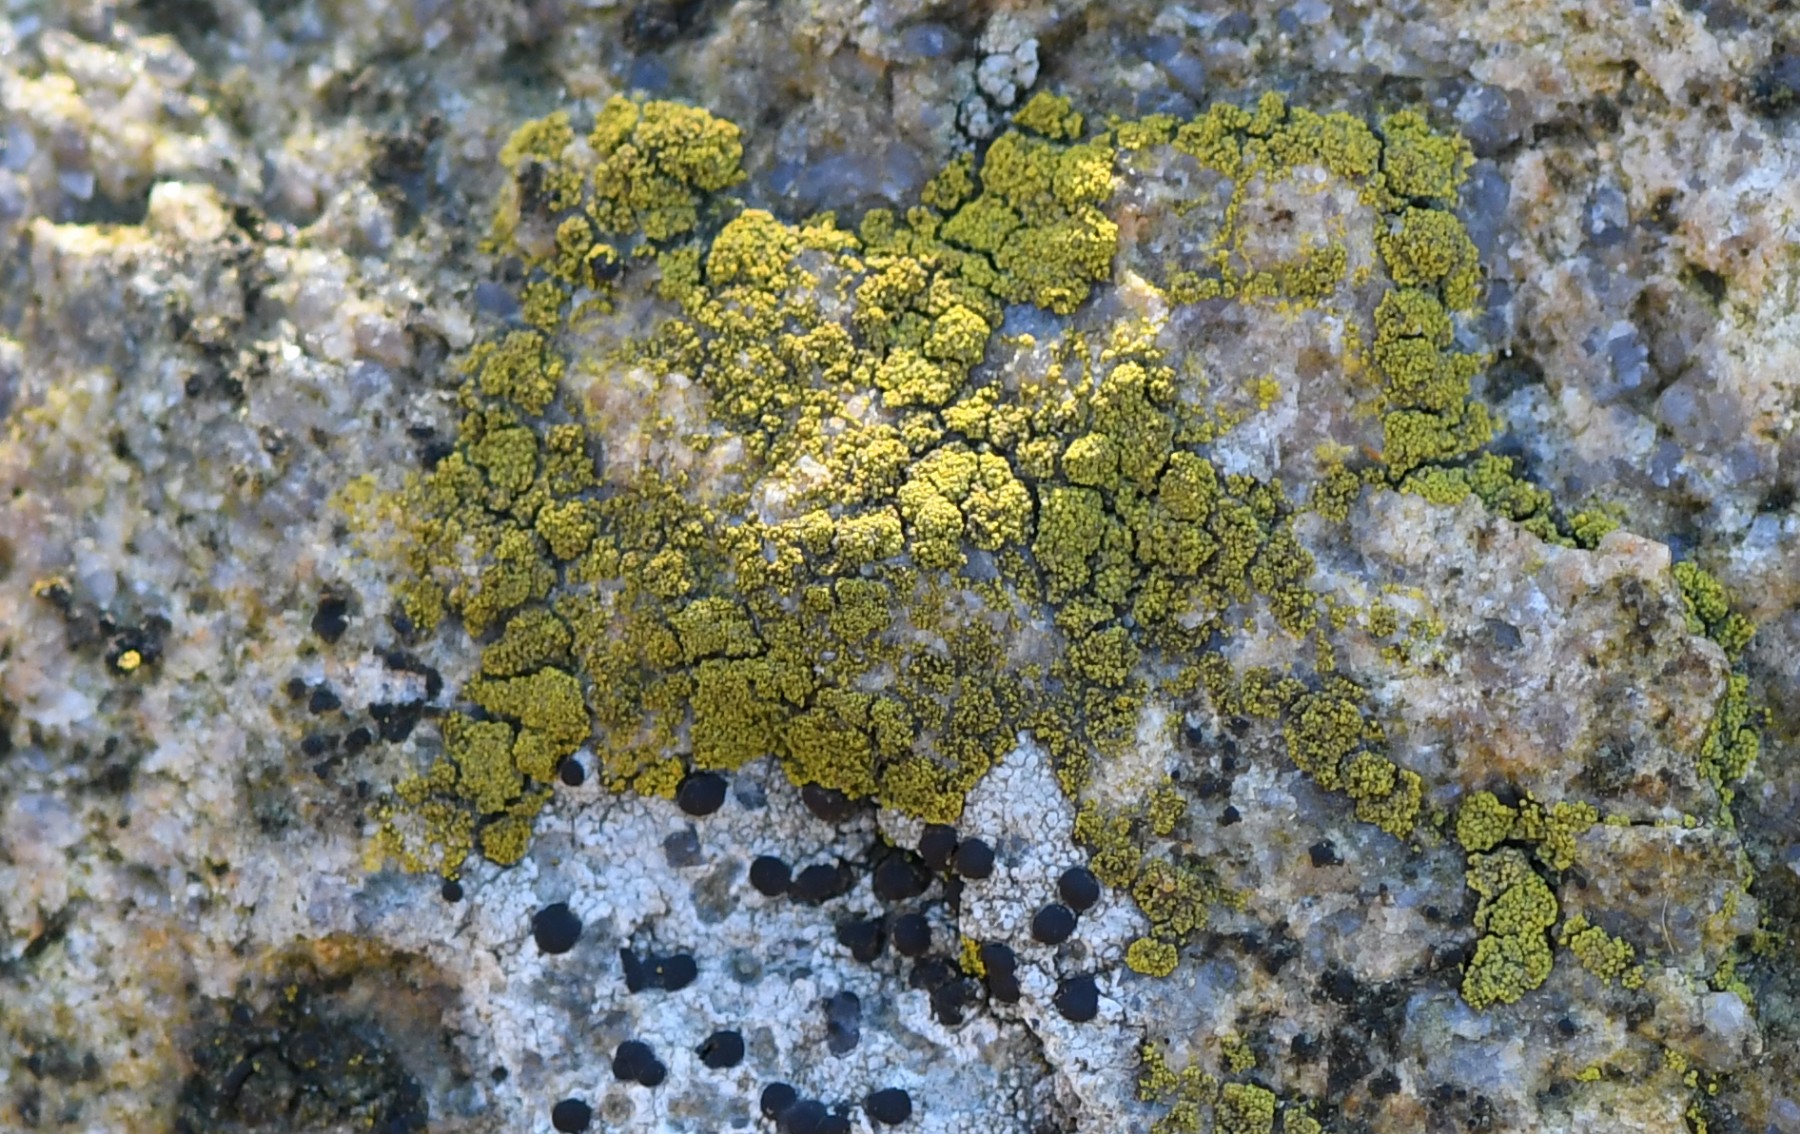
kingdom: Fungi
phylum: Ascomycota
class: Candelariomycetes
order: Candelariales
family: Candelariaceae
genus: Candelariella
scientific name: Candelariella vitellina
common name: almindelig æggeblommelav
